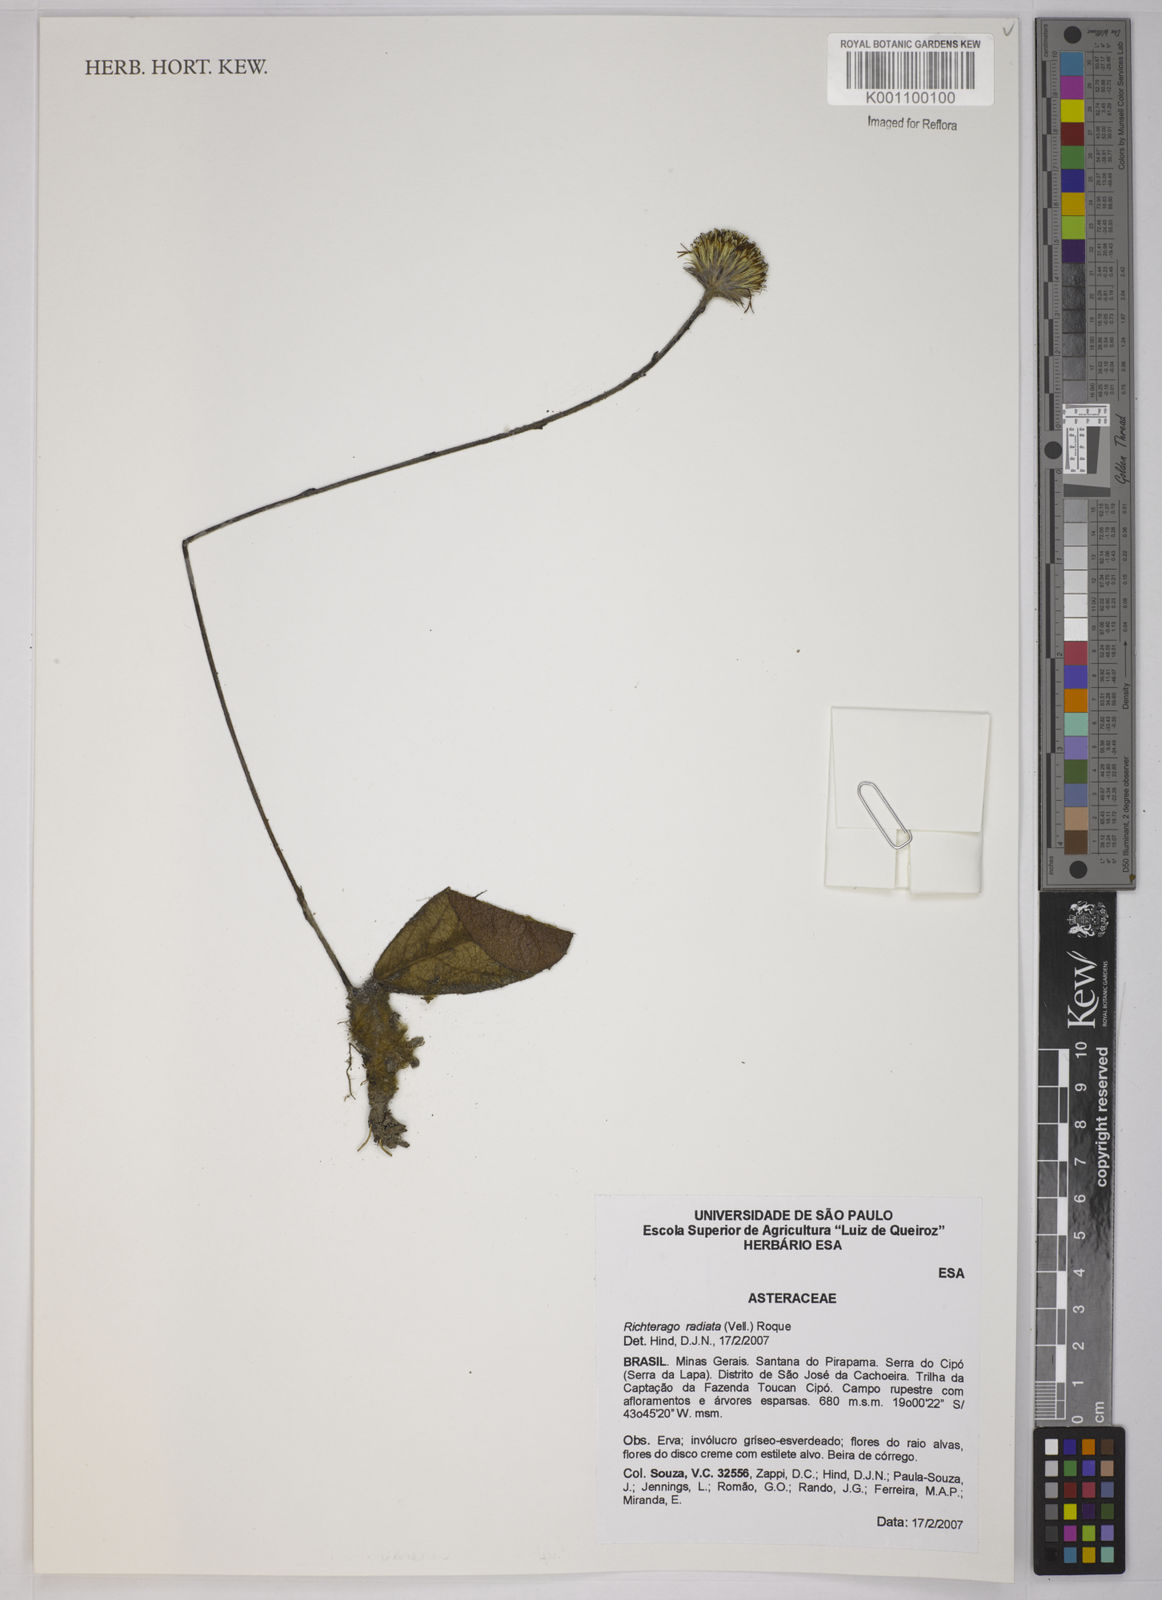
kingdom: Plantae
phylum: Tracheophyta
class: Magnoliopsida
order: Asterales
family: Asteraceae
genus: Richterago
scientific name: Richterago radiata
